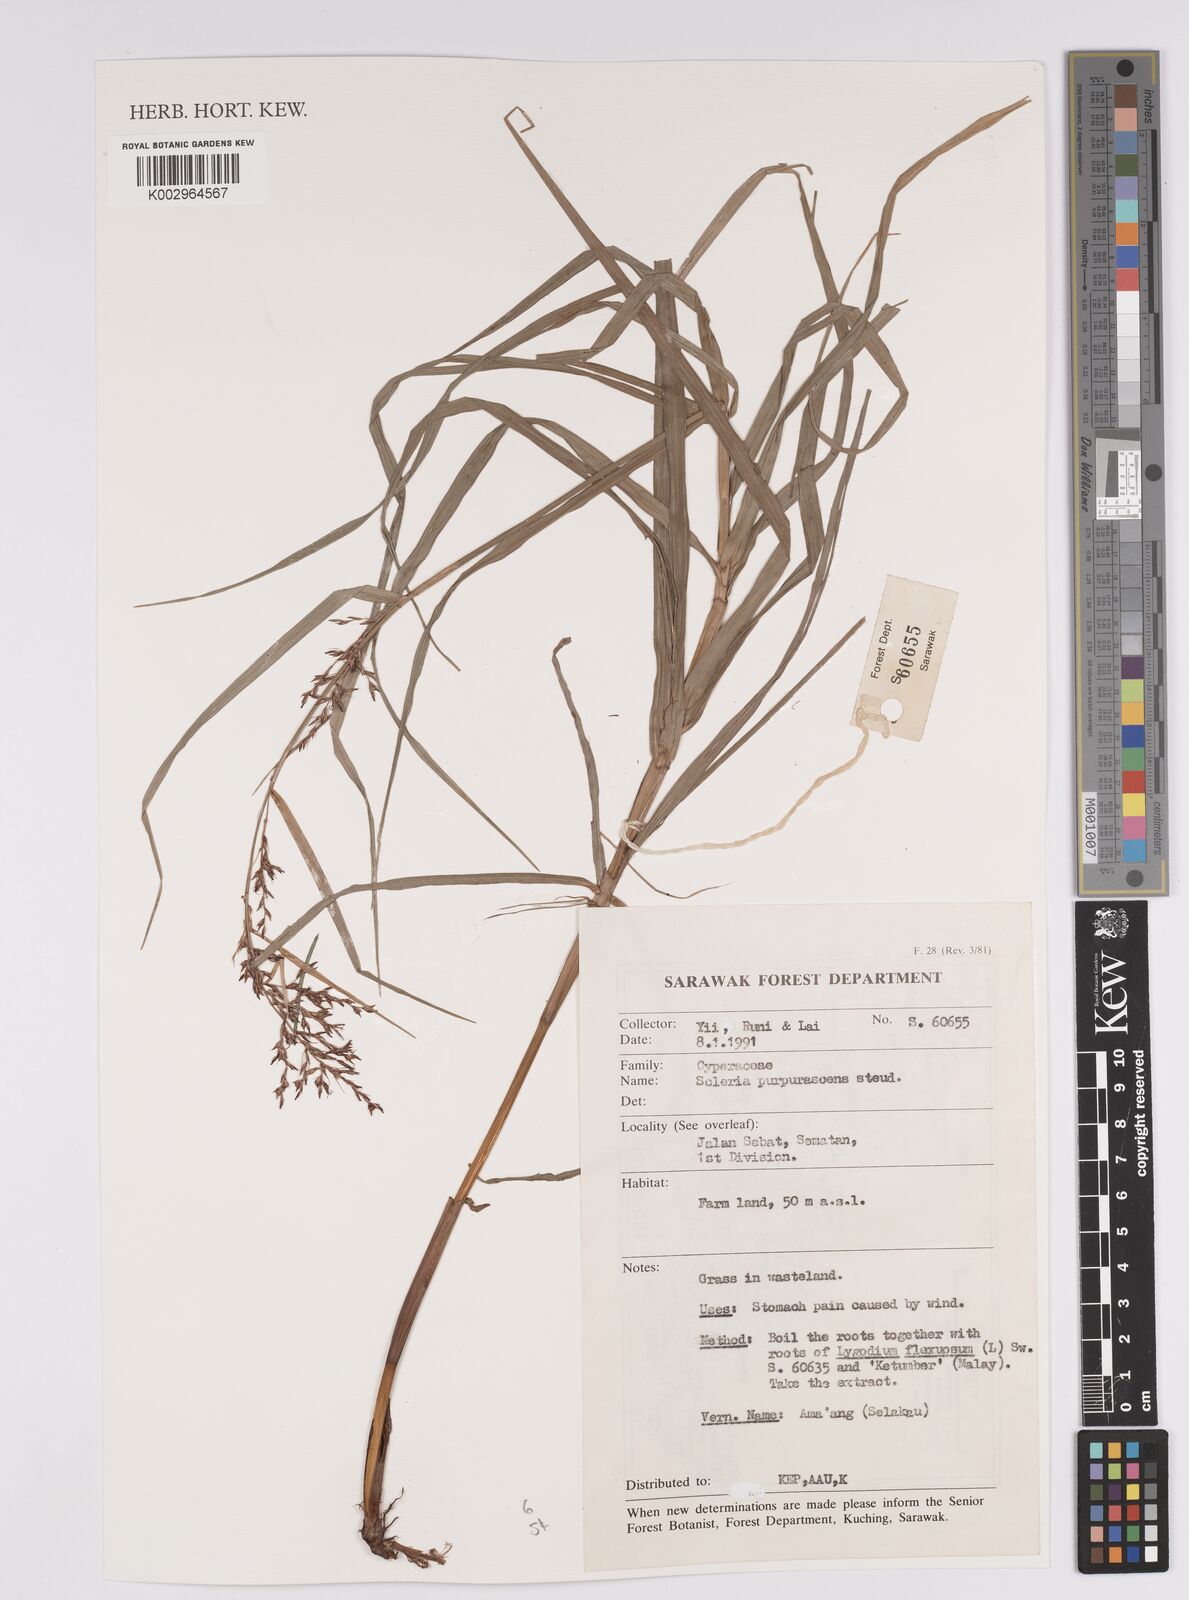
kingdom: Plantae
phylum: Tracheophyta
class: Liliopsida
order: Poales
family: Cyperaceae
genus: Scleria
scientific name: Scleria purpurascens
